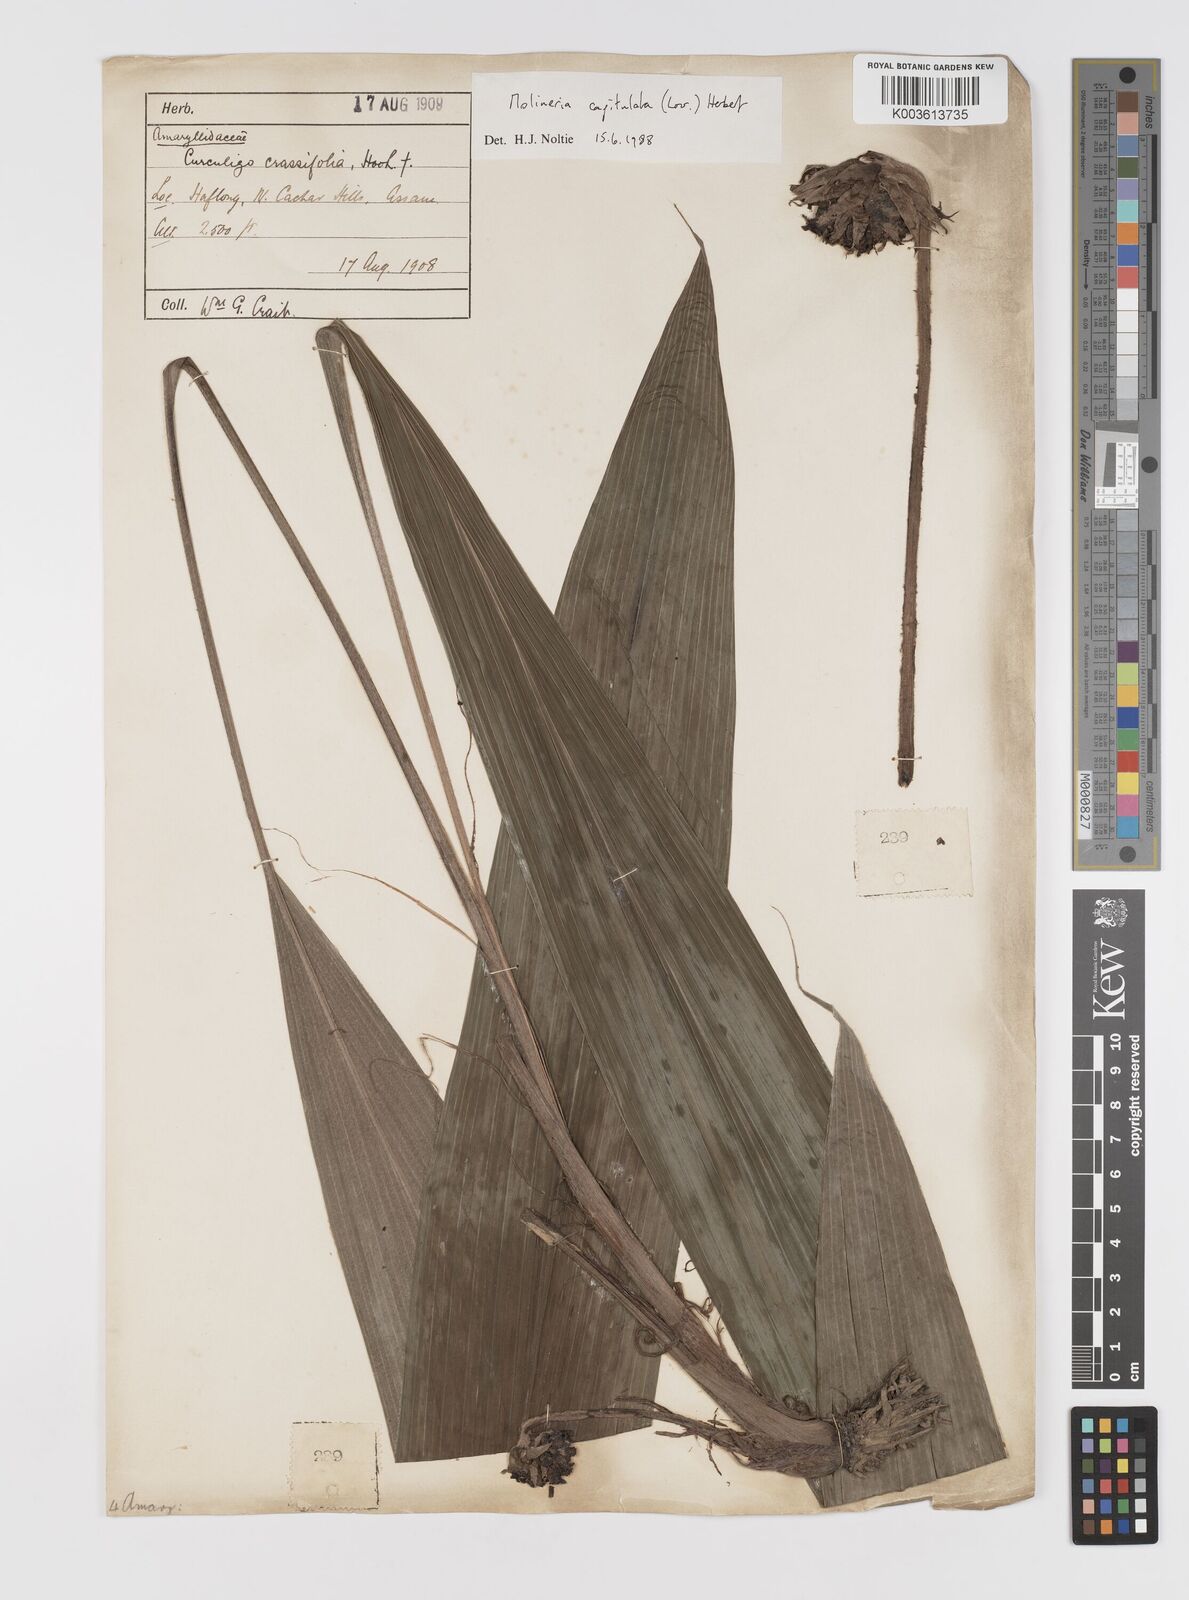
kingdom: Plantae
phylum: Tracheophyta
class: Liliopsida
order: Asparagales
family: Hypoxidaceae
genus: Curculigo
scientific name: Curculigo capitulata
